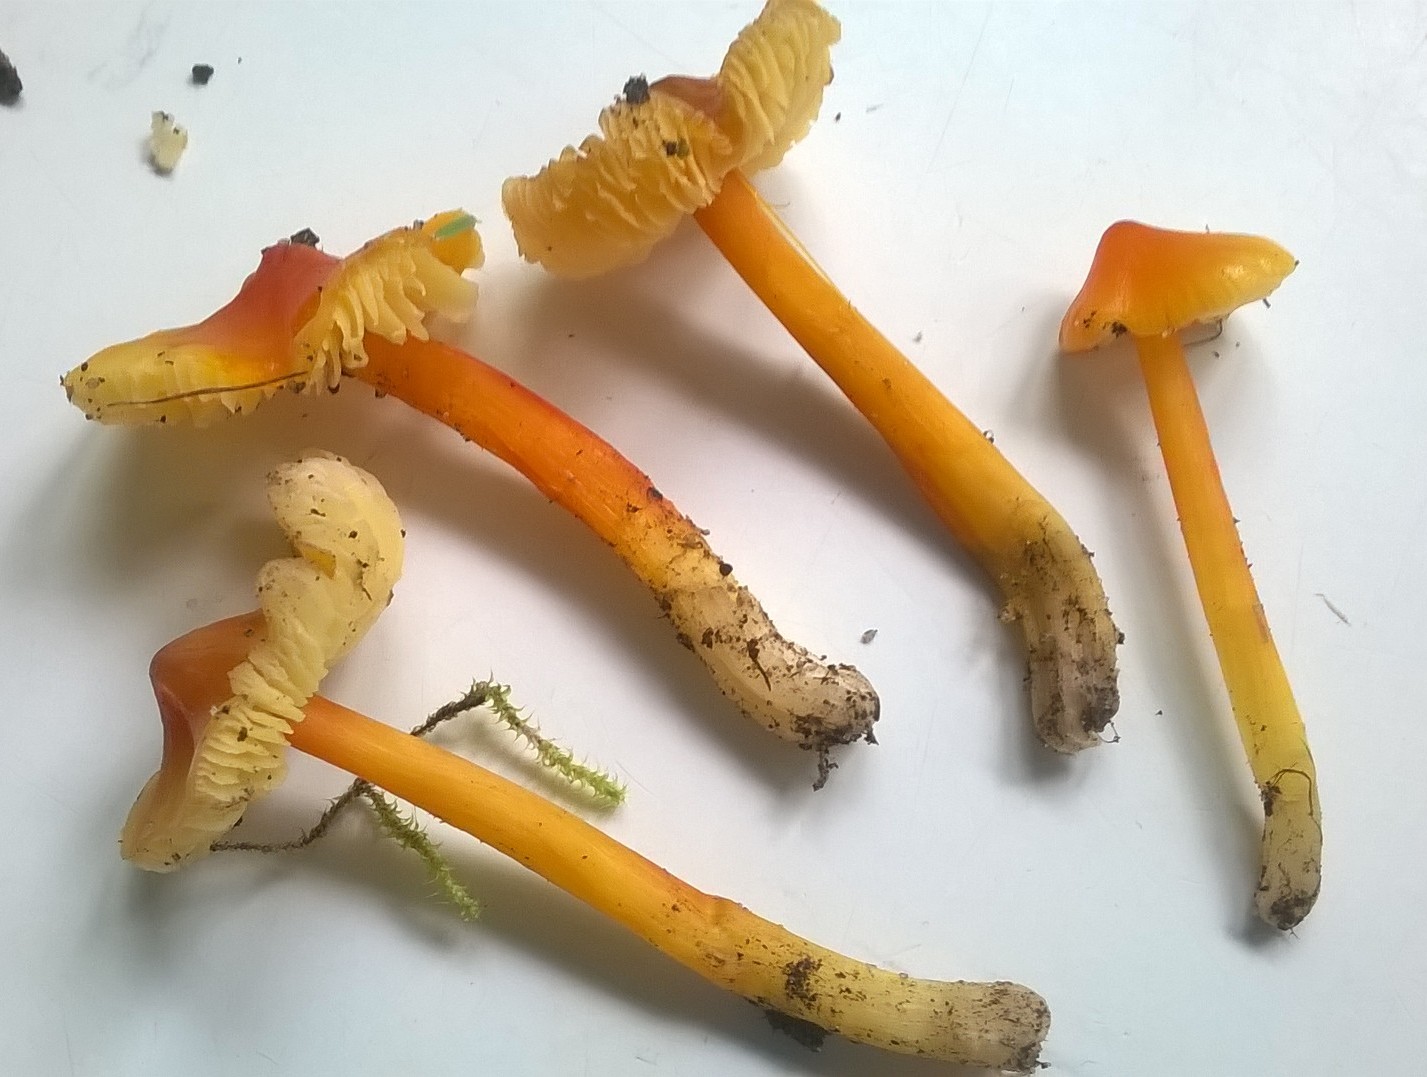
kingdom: Fungi
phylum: Basidiomycota
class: Agaricomycetes
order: Agaricales
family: Hygrophoraceae
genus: Hygrocybe
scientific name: Hygrocybe acutoconica
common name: spidspuklet vokshat
